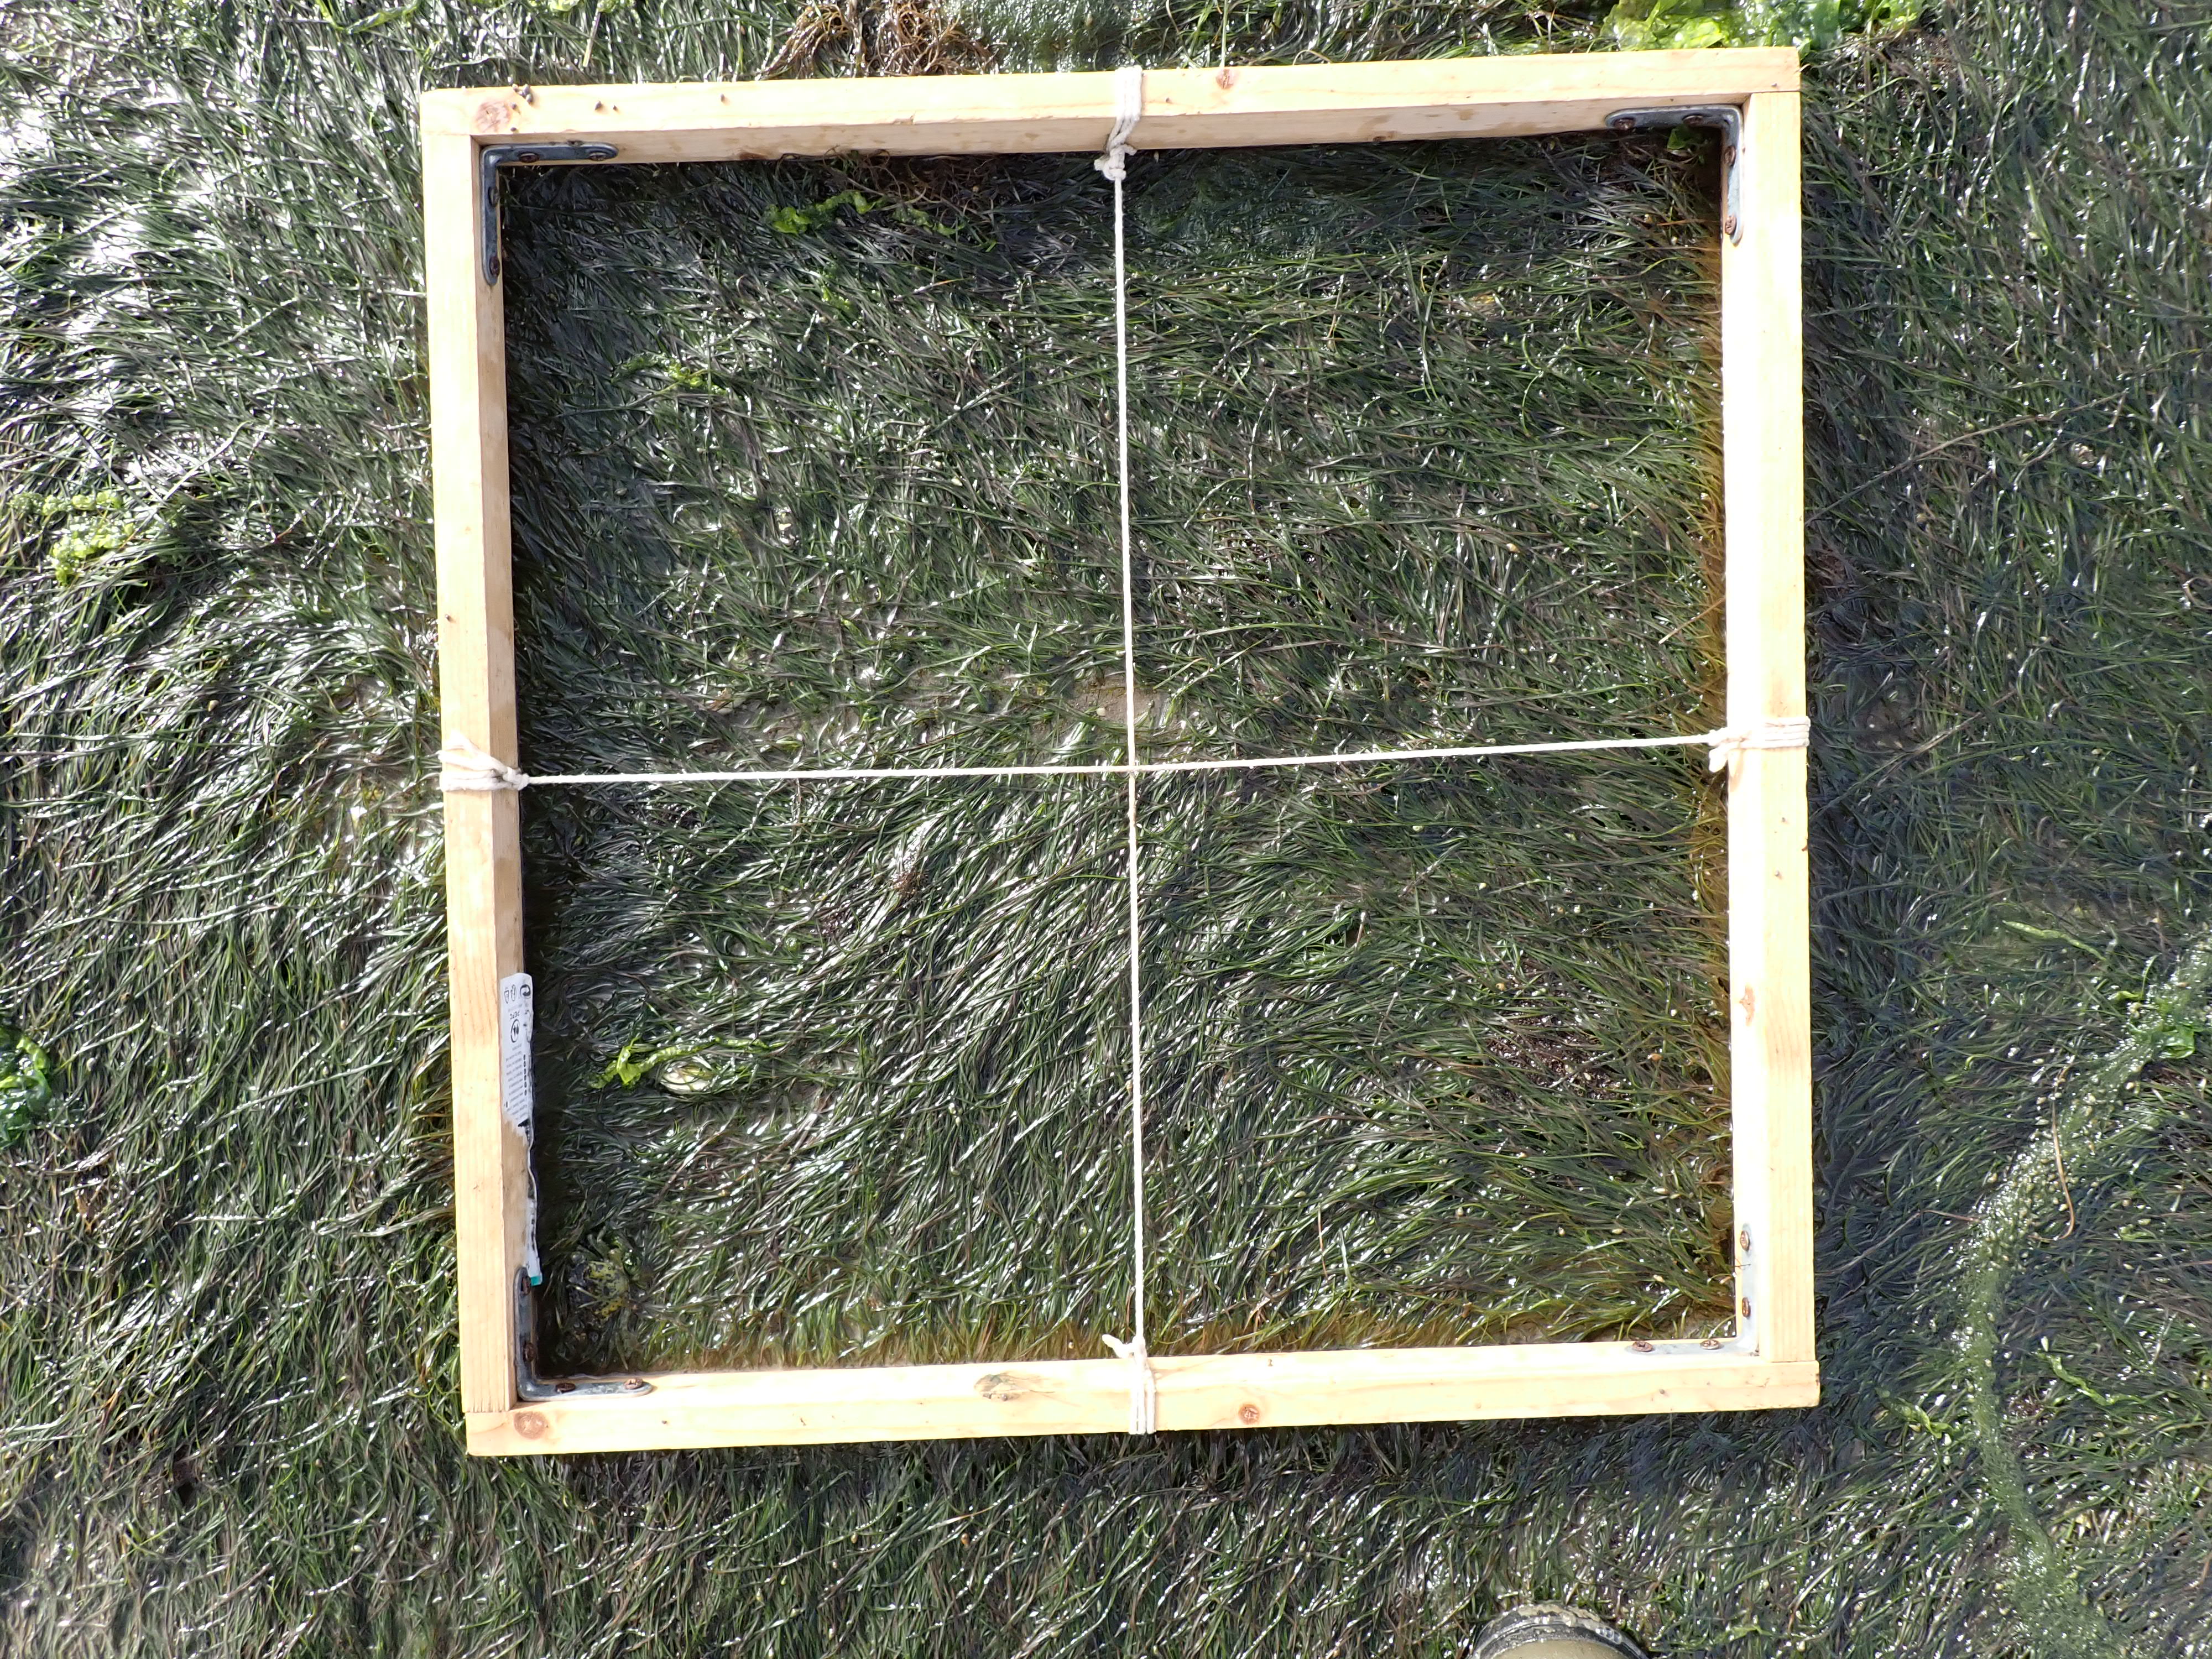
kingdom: Plantae
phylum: Rhodophyta
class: Florideophyceae
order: Gracilariales
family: Gracilariaceae
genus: Gracilaria
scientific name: Gracilaria vermiculophylla
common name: Algae
